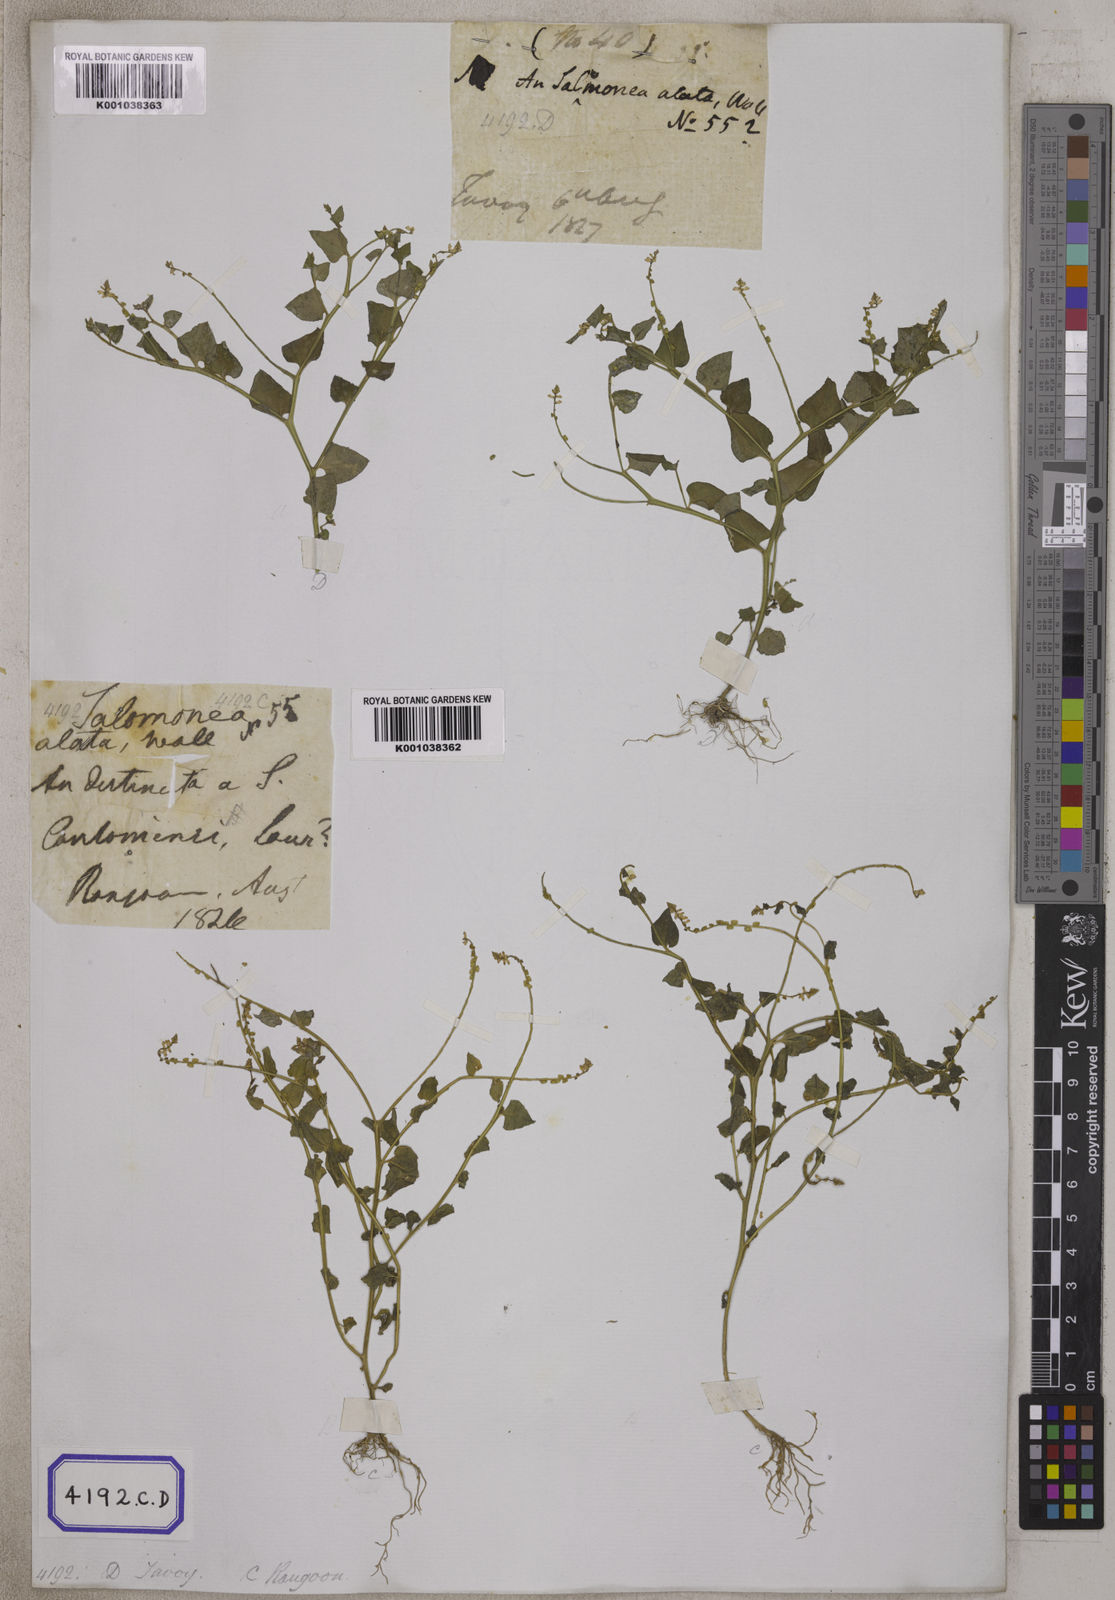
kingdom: Plantae
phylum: Tracheophyta
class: Magnoliopsida
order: Fabales
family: Polygalaceae
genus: Salomonia
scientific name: Salomonia cantoniensis
